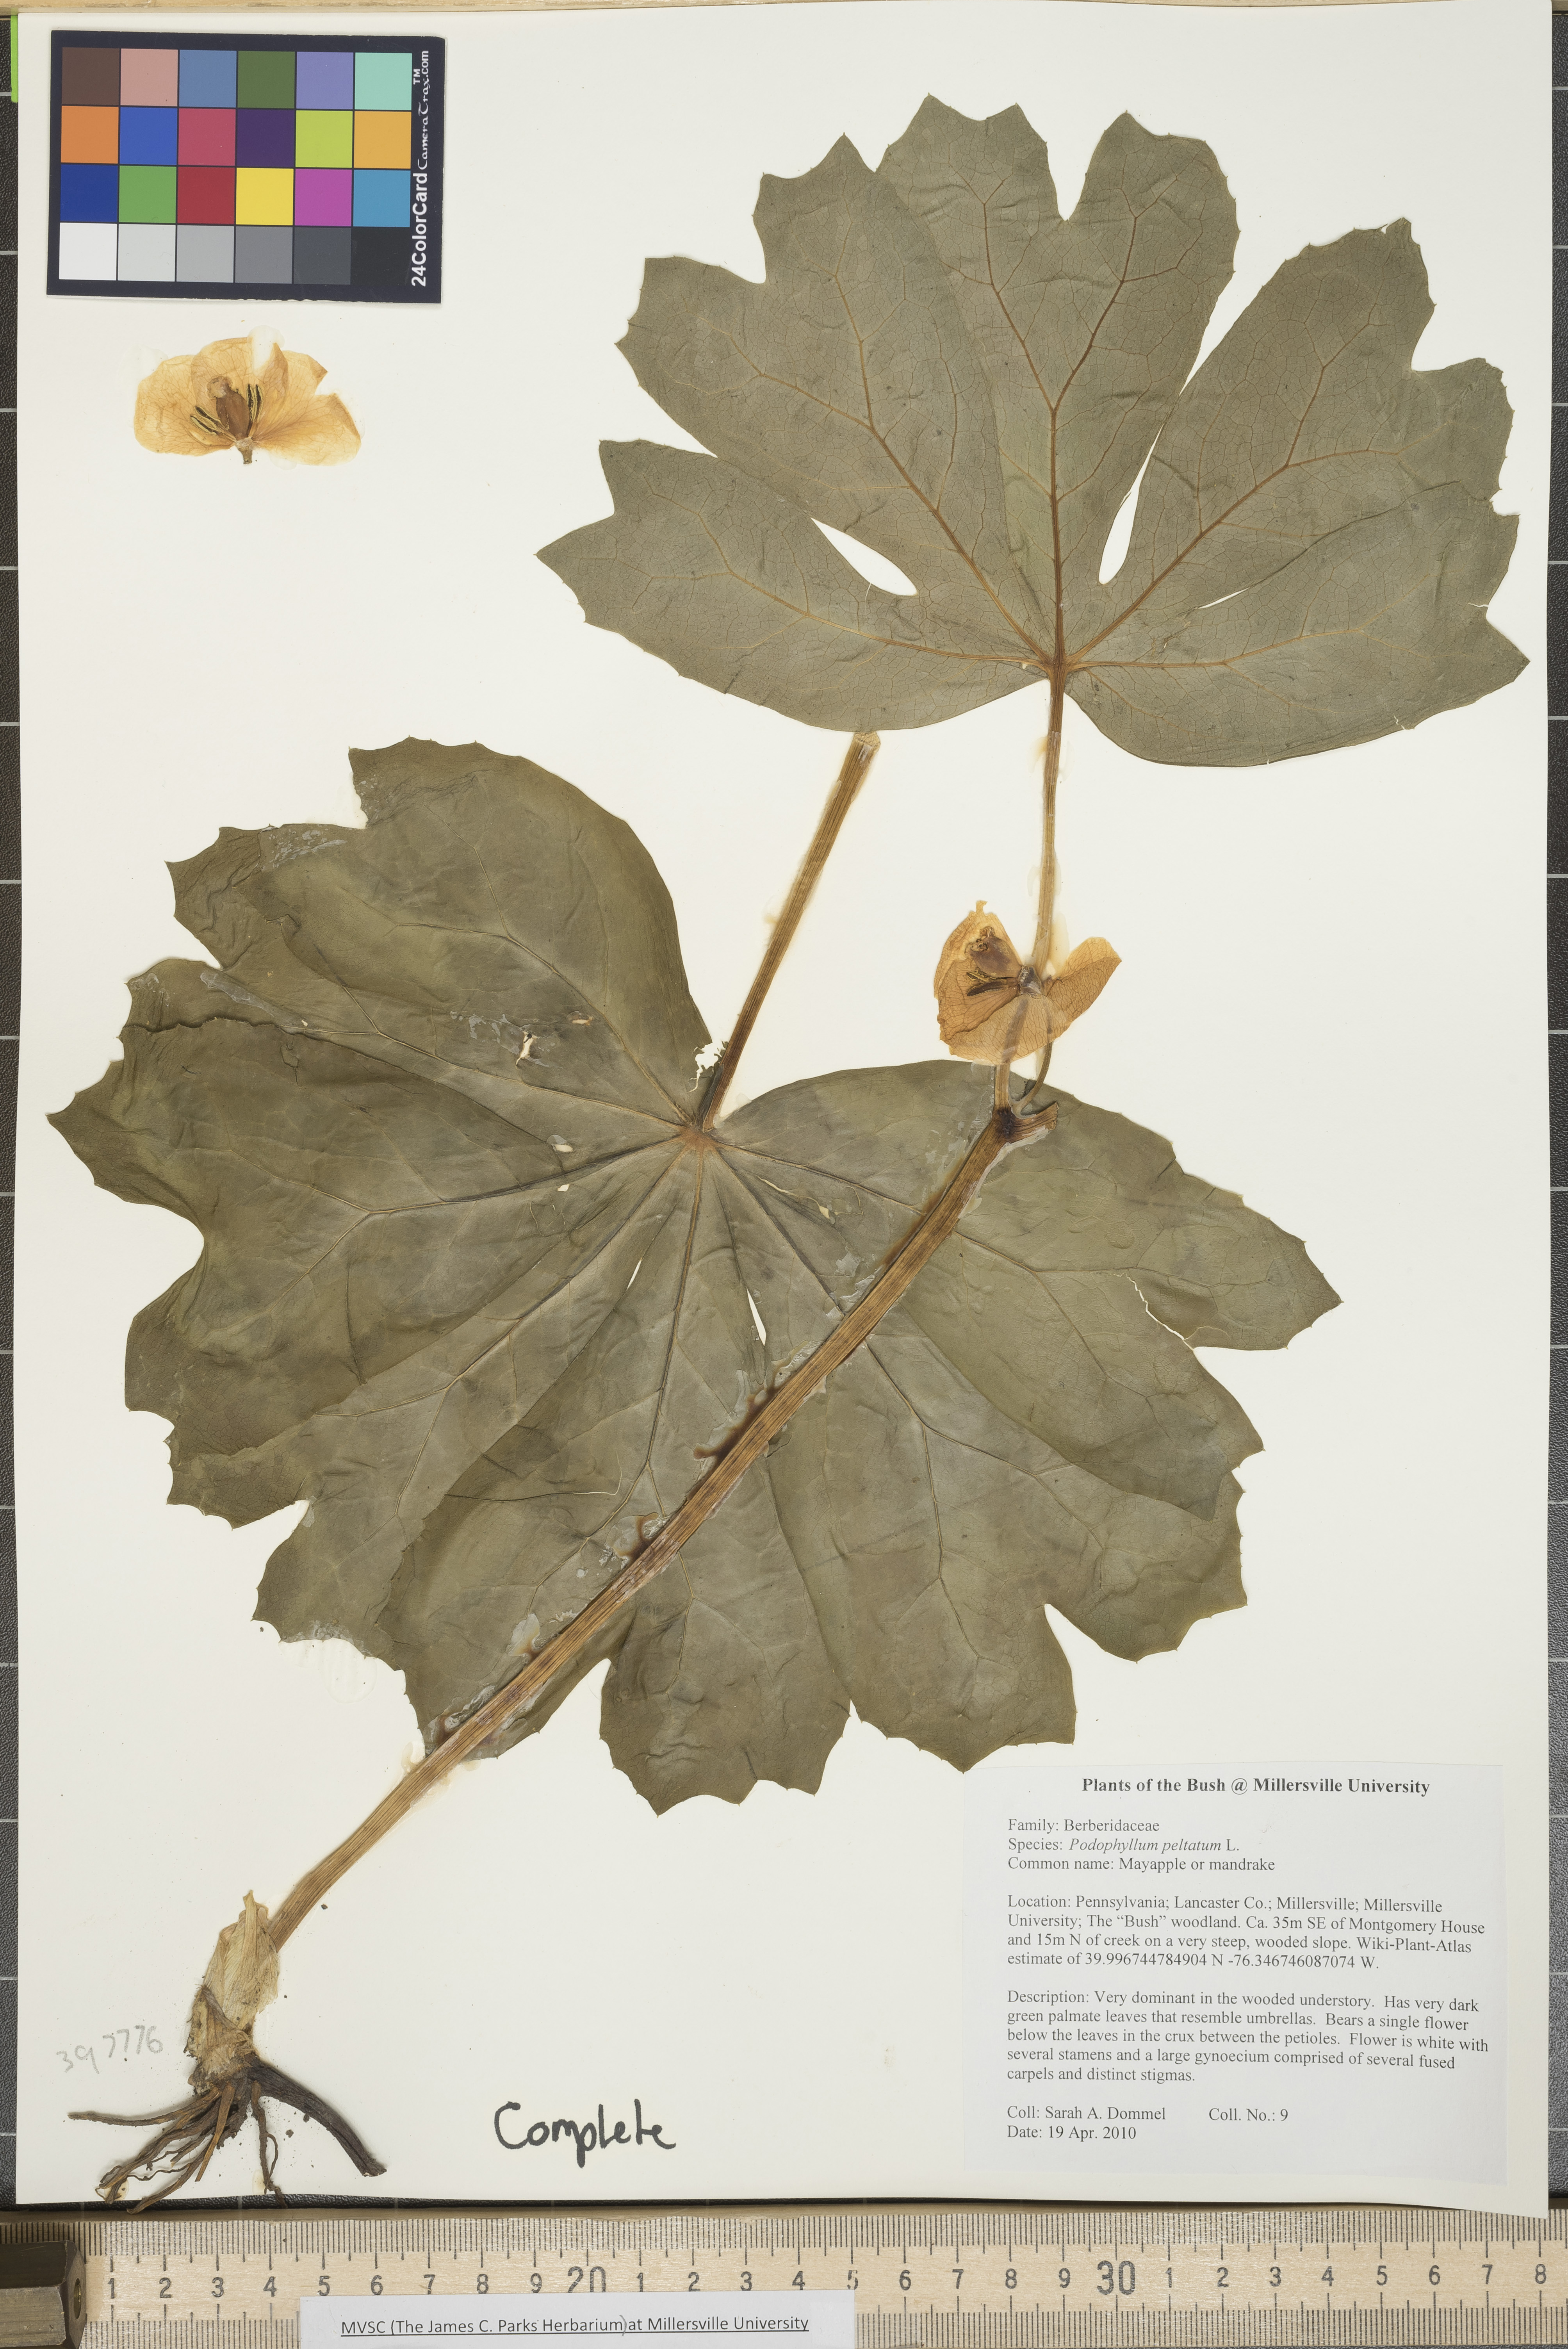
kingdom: Plantae
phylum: Tracheophyta
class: Magnoliopsida
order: Ranunculales
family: Berberidaceae
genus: Podophyllum
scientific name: Podophyllum peltatum
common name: Mayapple
